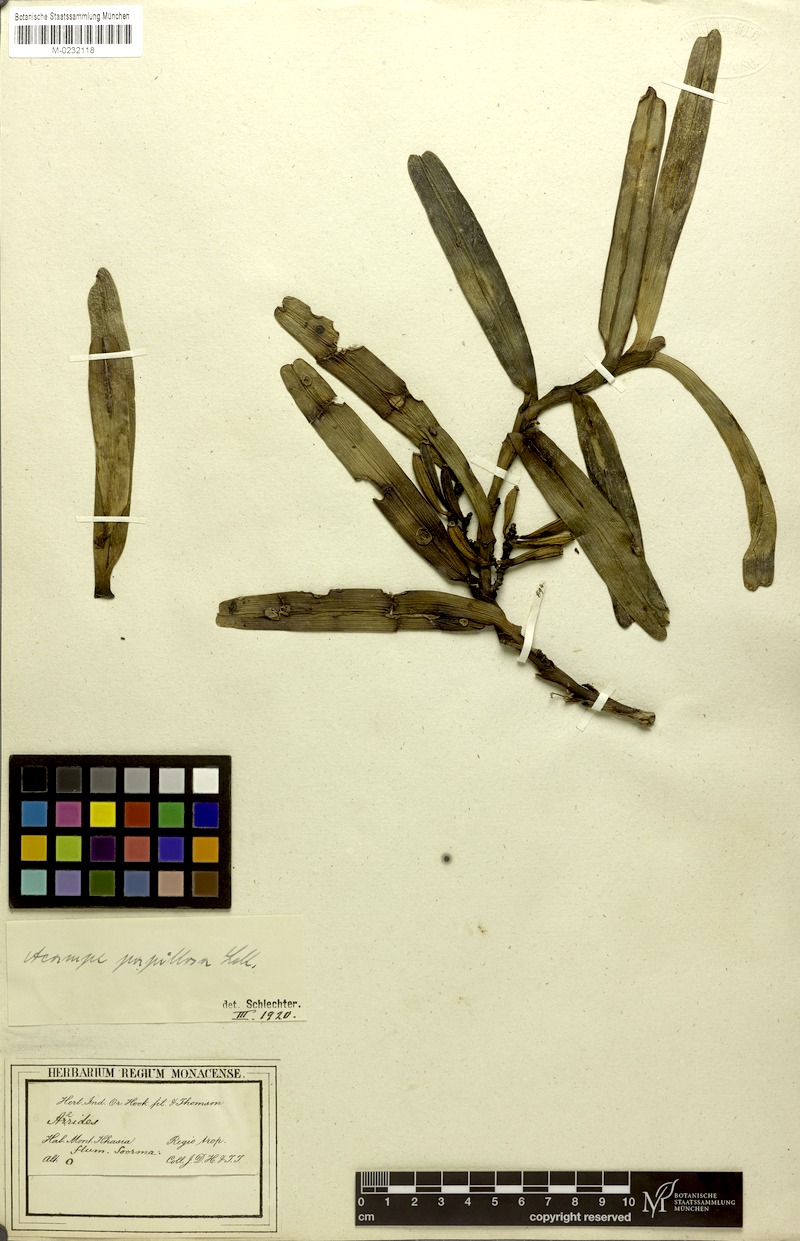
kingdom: Plantae
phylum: Tracheophyta
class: Liliopsida
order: Asparagales
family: Orchidaceae
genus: Acampe
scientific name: Acampe praemorsa
